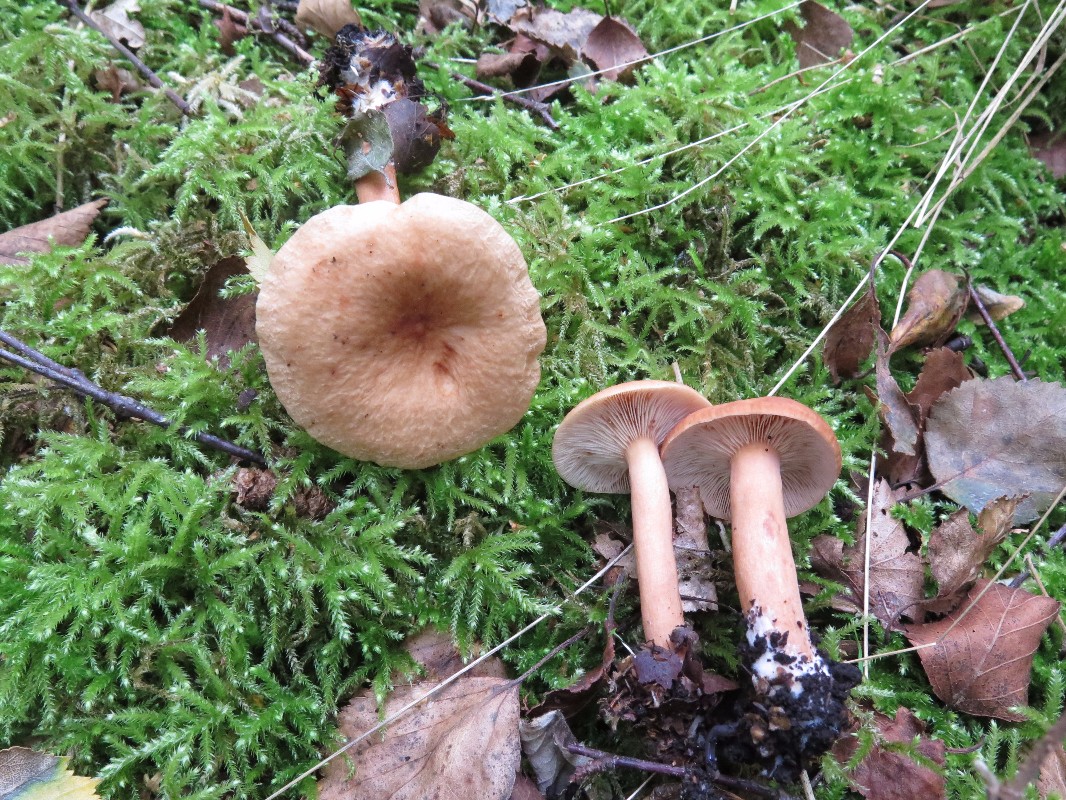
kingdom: Fungi
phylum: Basidiomycota
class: Agaricomycetes
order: Russulales
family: Russulaceae
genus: Lactarius
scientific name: Lactarius tabidus
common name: rynket mælkehat
